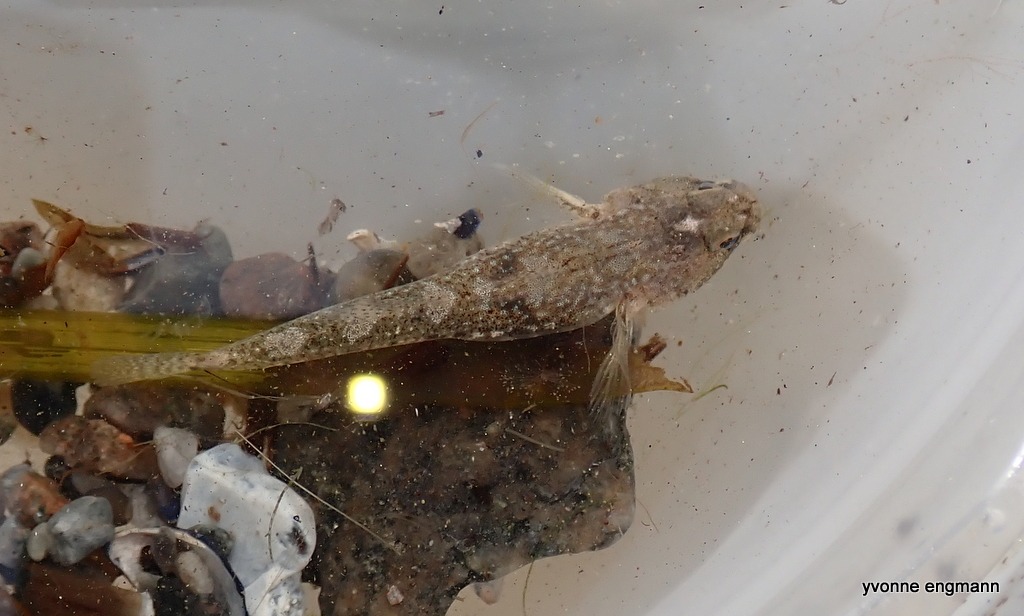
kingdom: Animalia
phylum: Chordata
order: Perciformes
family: Gobiidae
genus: Pomatoschistus
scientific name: Pomatoschistus microps
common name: Lerkutling
